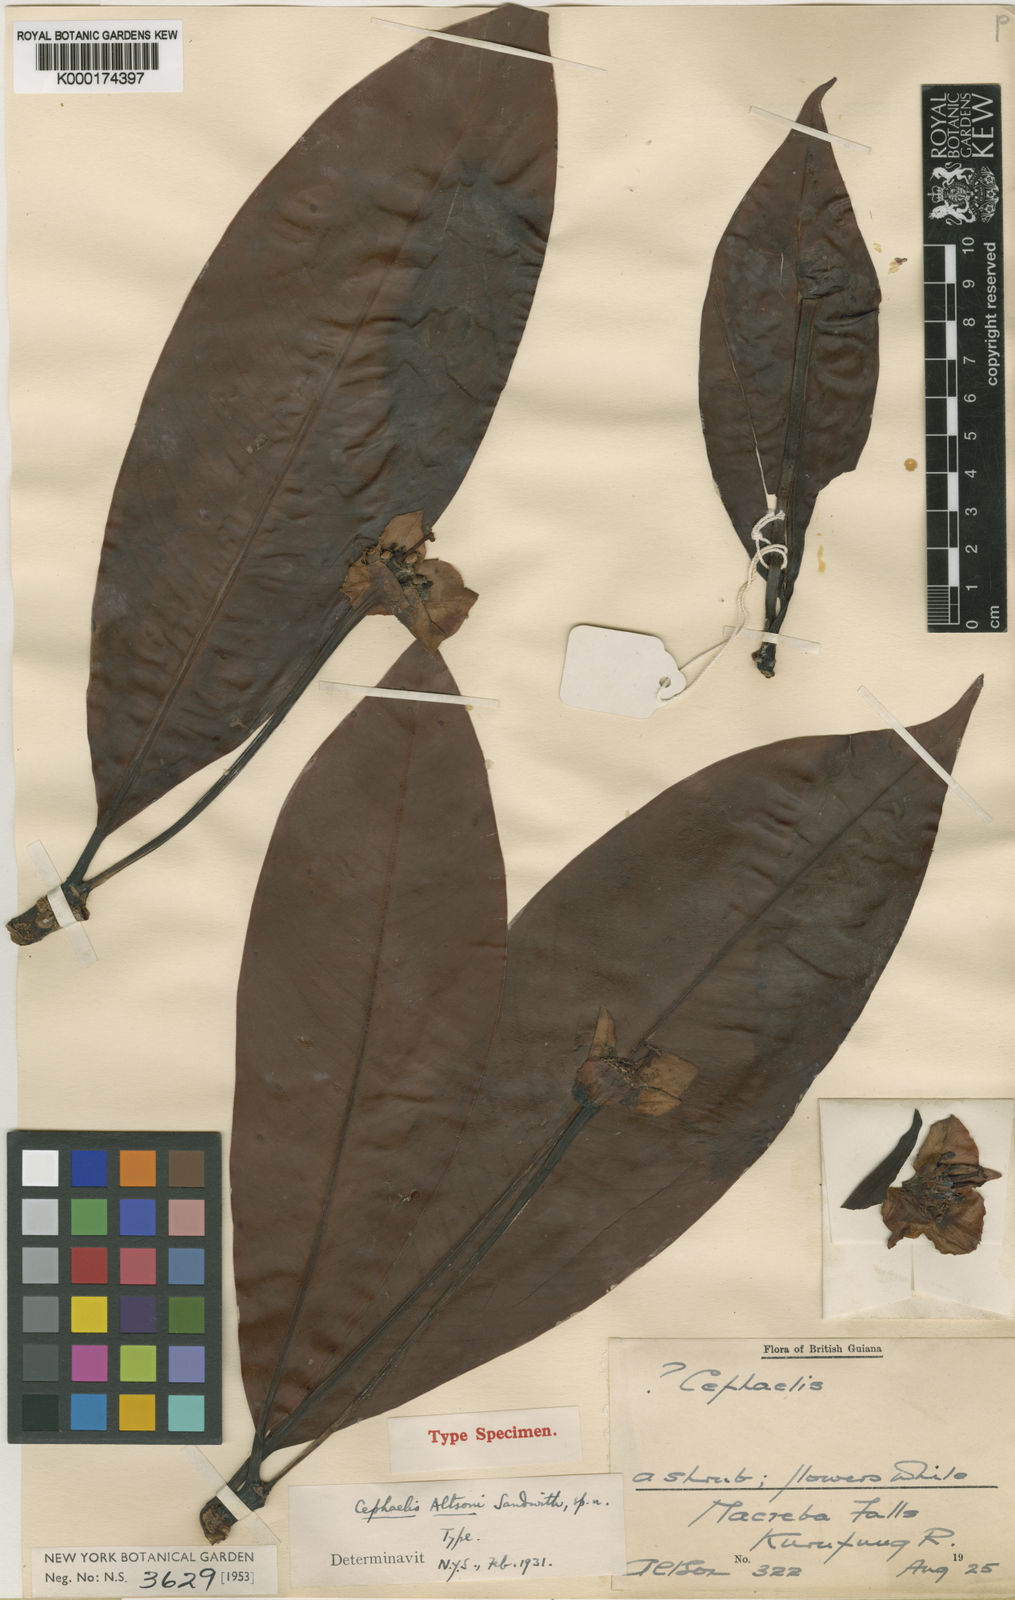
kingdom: Plantae
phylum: Tracheophyta
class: Magnoliopsida
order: Gentianales
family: Rubiaceae
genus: Carapichea
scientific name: Carapichea altsonii
